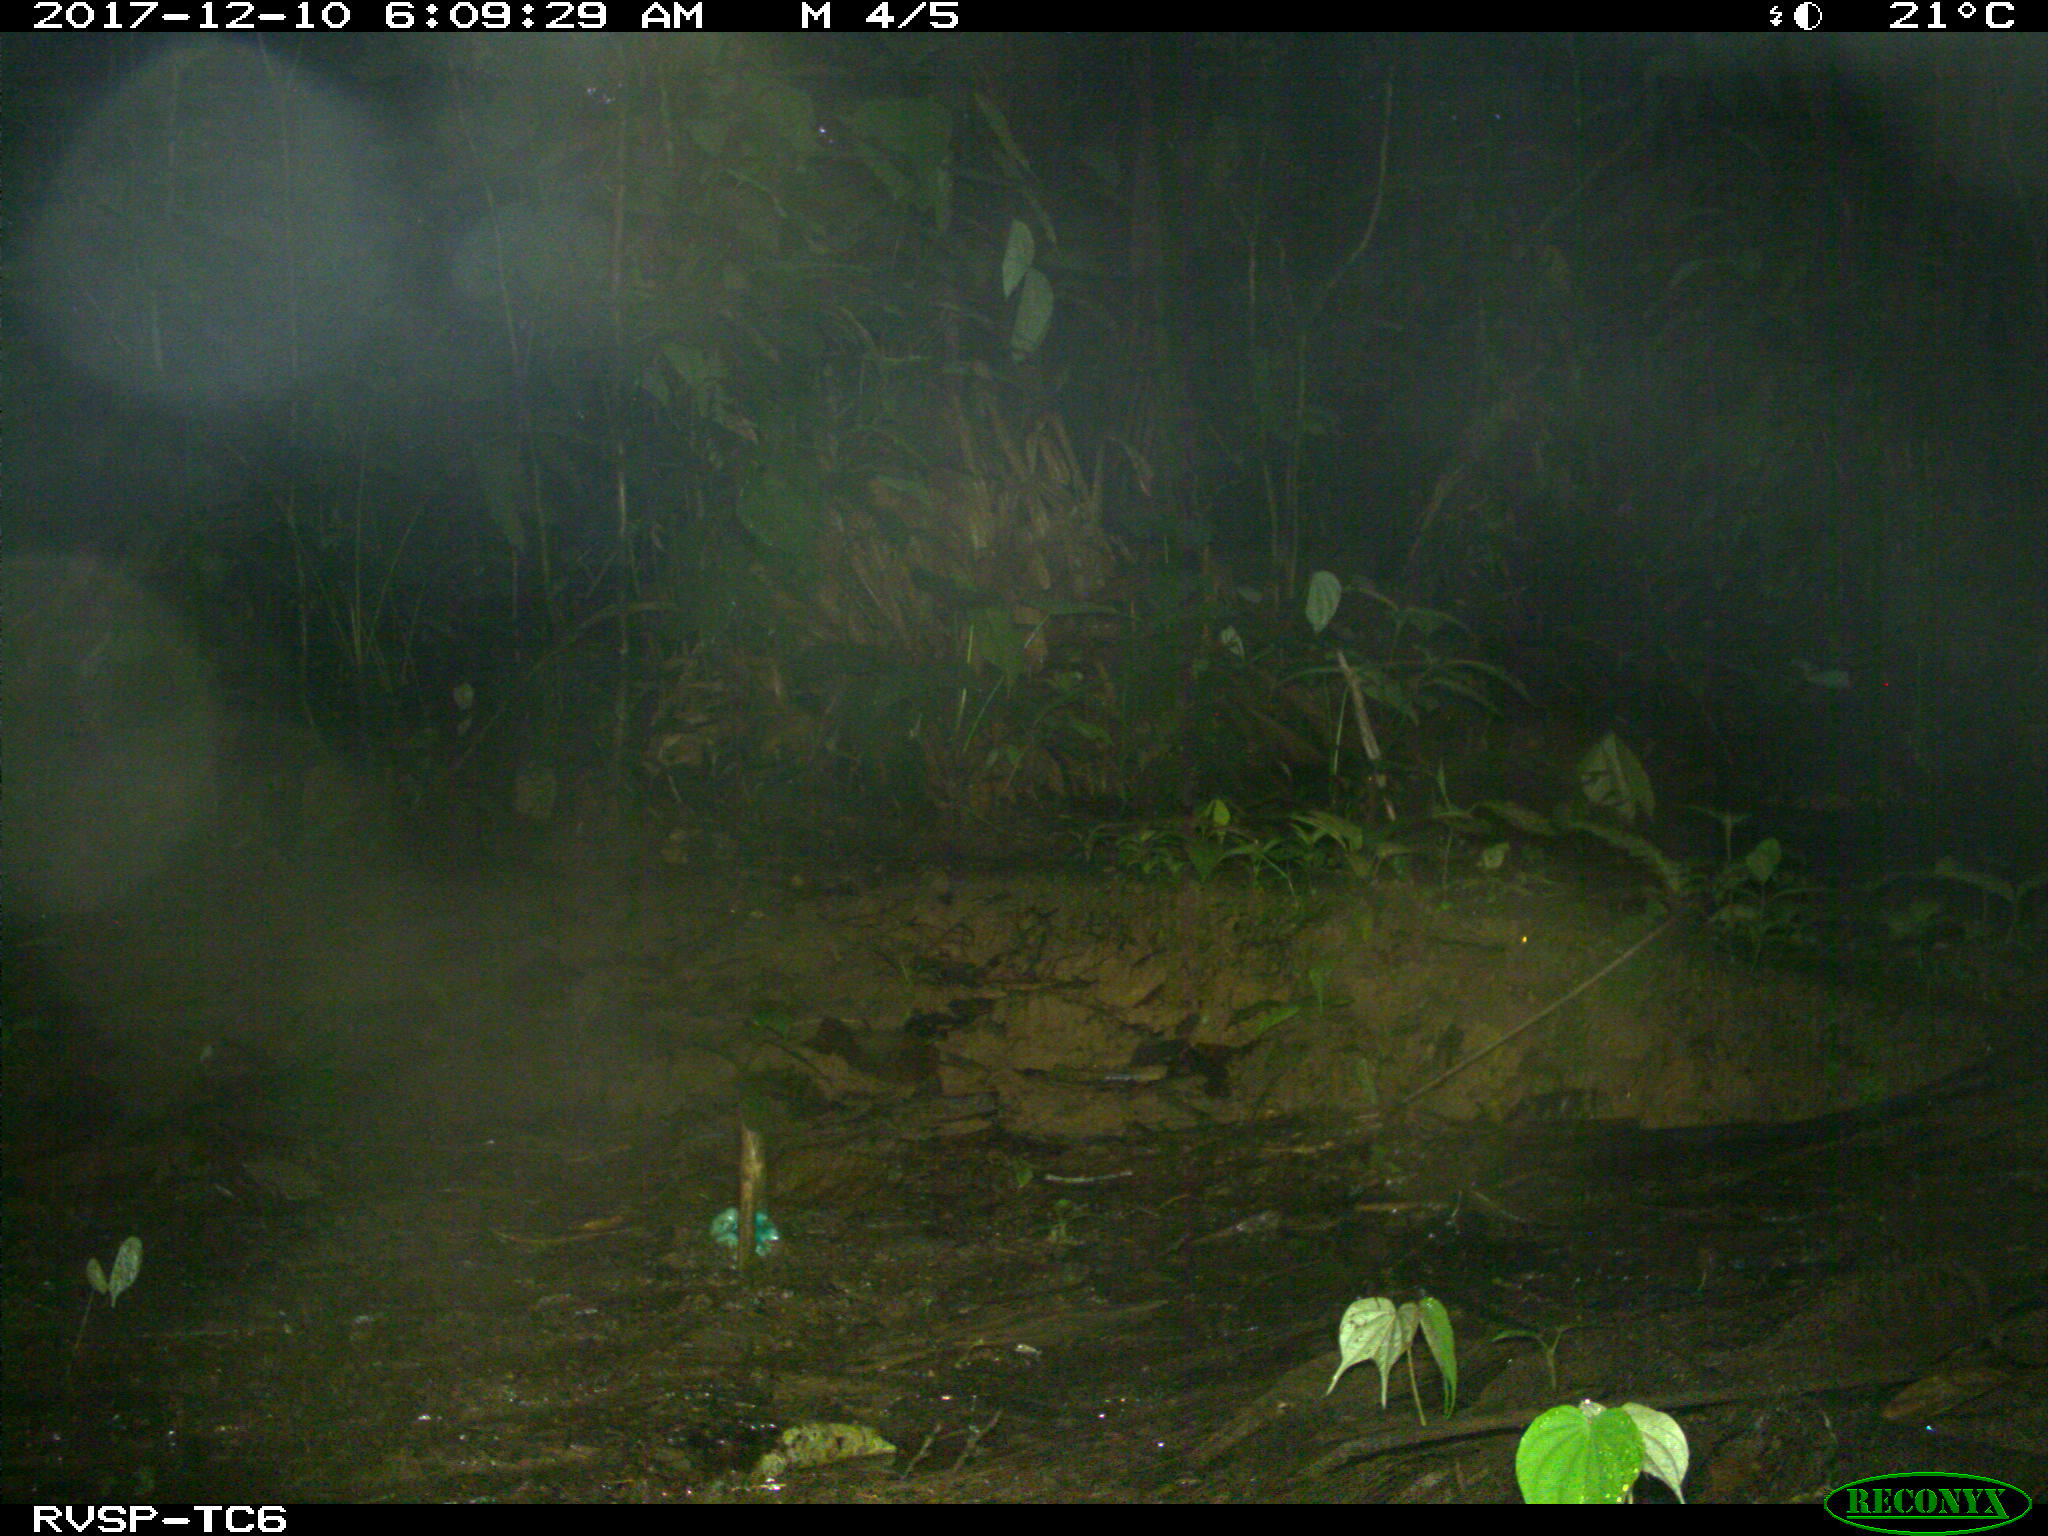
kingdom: Animalia
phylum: Chordata
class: Mammalia
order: Rodentia
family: Dasyproctidae
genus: Dasyprocta
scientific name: Dasyprocta punctata
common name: Central american agouti
